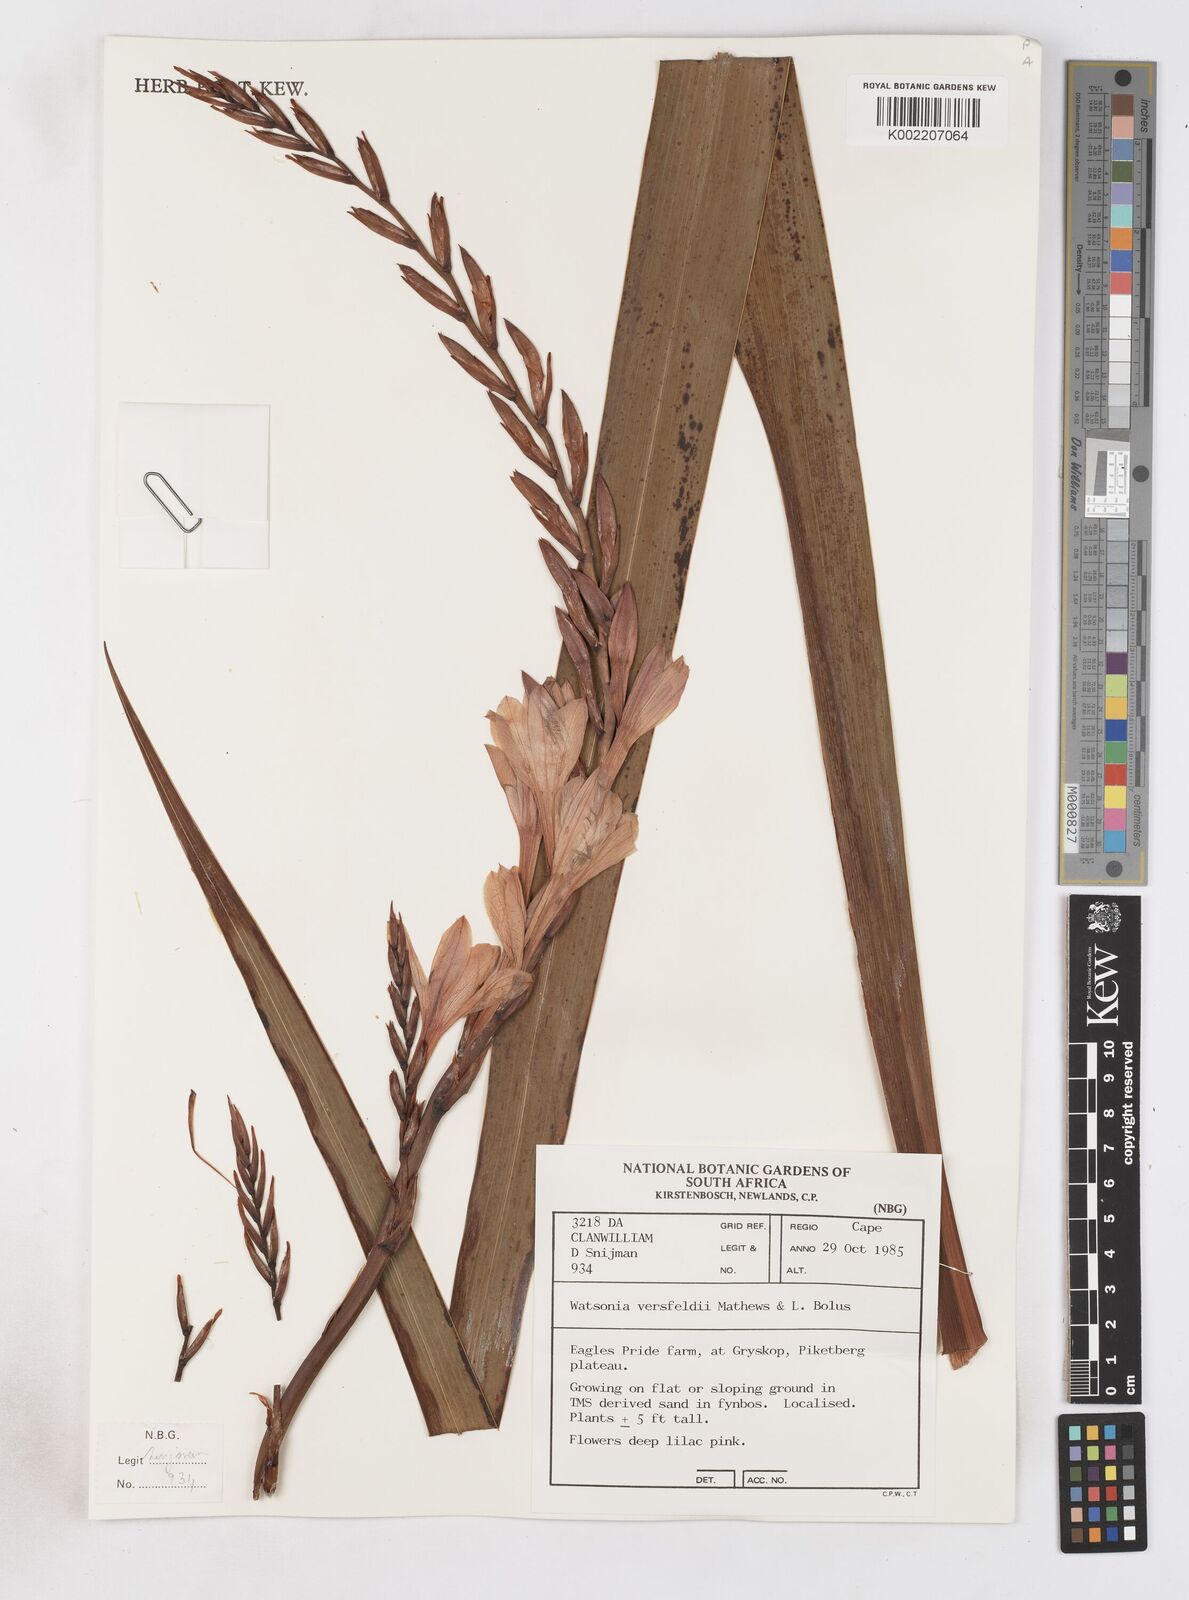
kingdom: Plantae
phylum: Tracheophyta
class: Liliopsida
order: Asparagales
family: Iridaceae
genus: Watsonia
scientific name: Watsonia versfeldii
